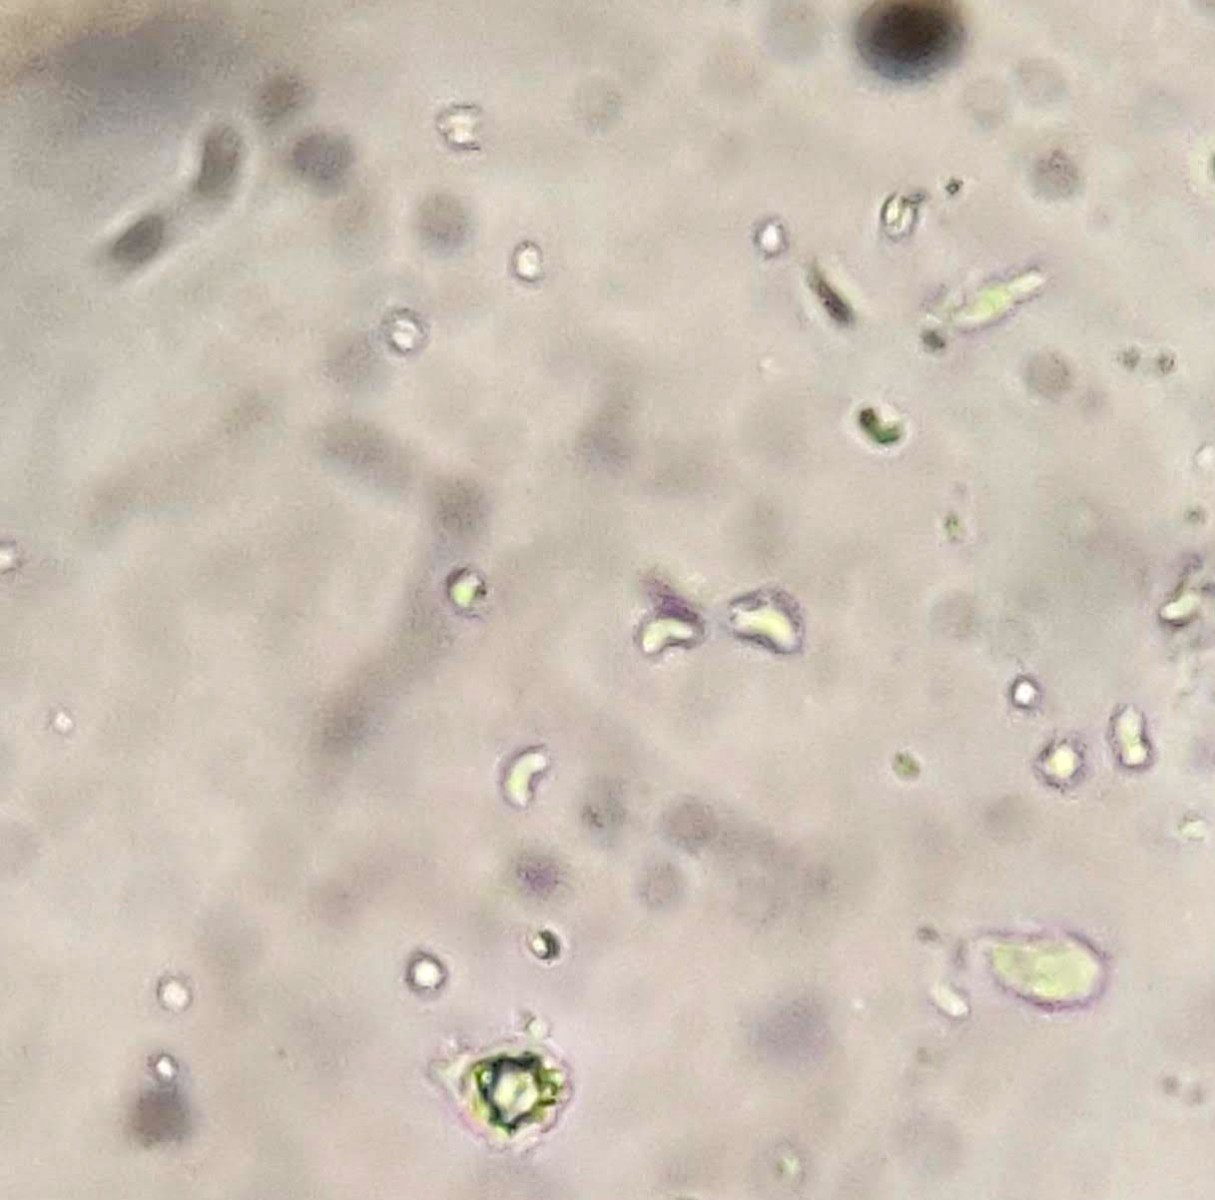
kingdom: Fungi
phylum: Basidiomycota
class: Agaricomycetes
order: Hymenochaetales
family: Rickenellaceae
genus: Sidera
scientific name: Sidera vulgaris
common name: fin flødeporesvamp
